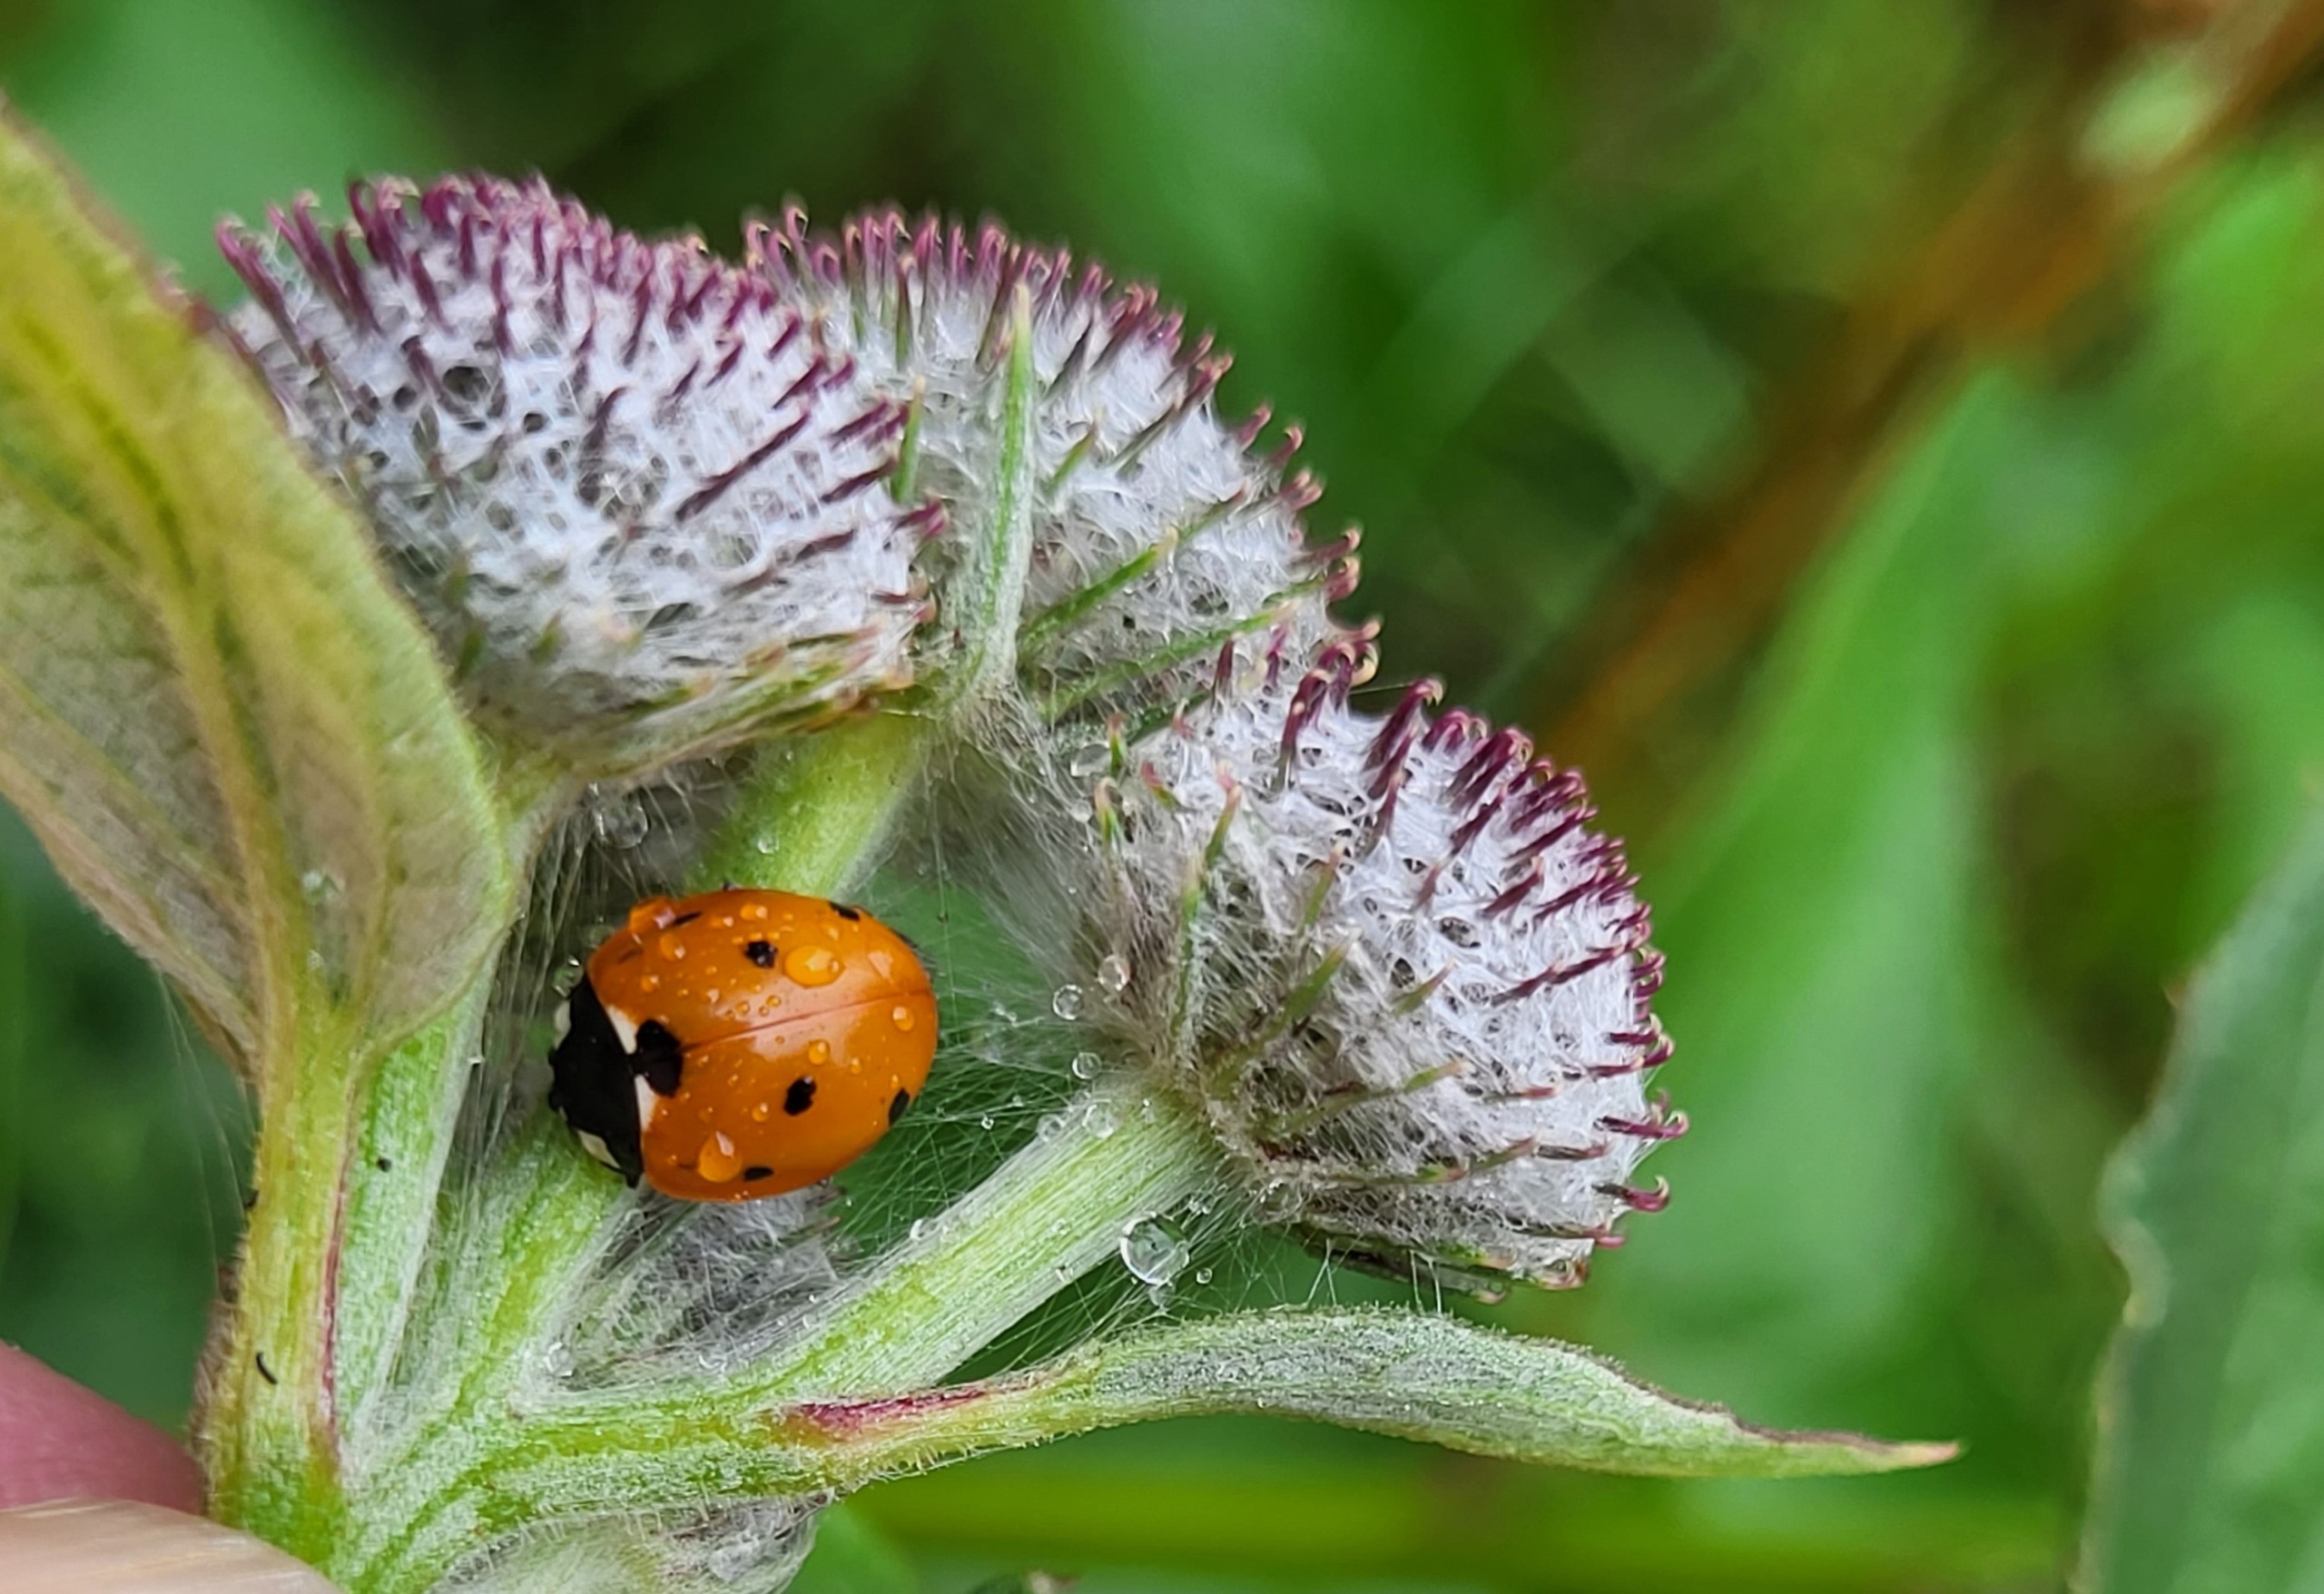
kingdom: Animalia
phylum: Arthropoda
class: Insecta
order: Coleoptera
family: Coccinellidae
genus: Coccinella
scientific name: Coccinella septempunctata
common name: Syvplettet mariehøne
